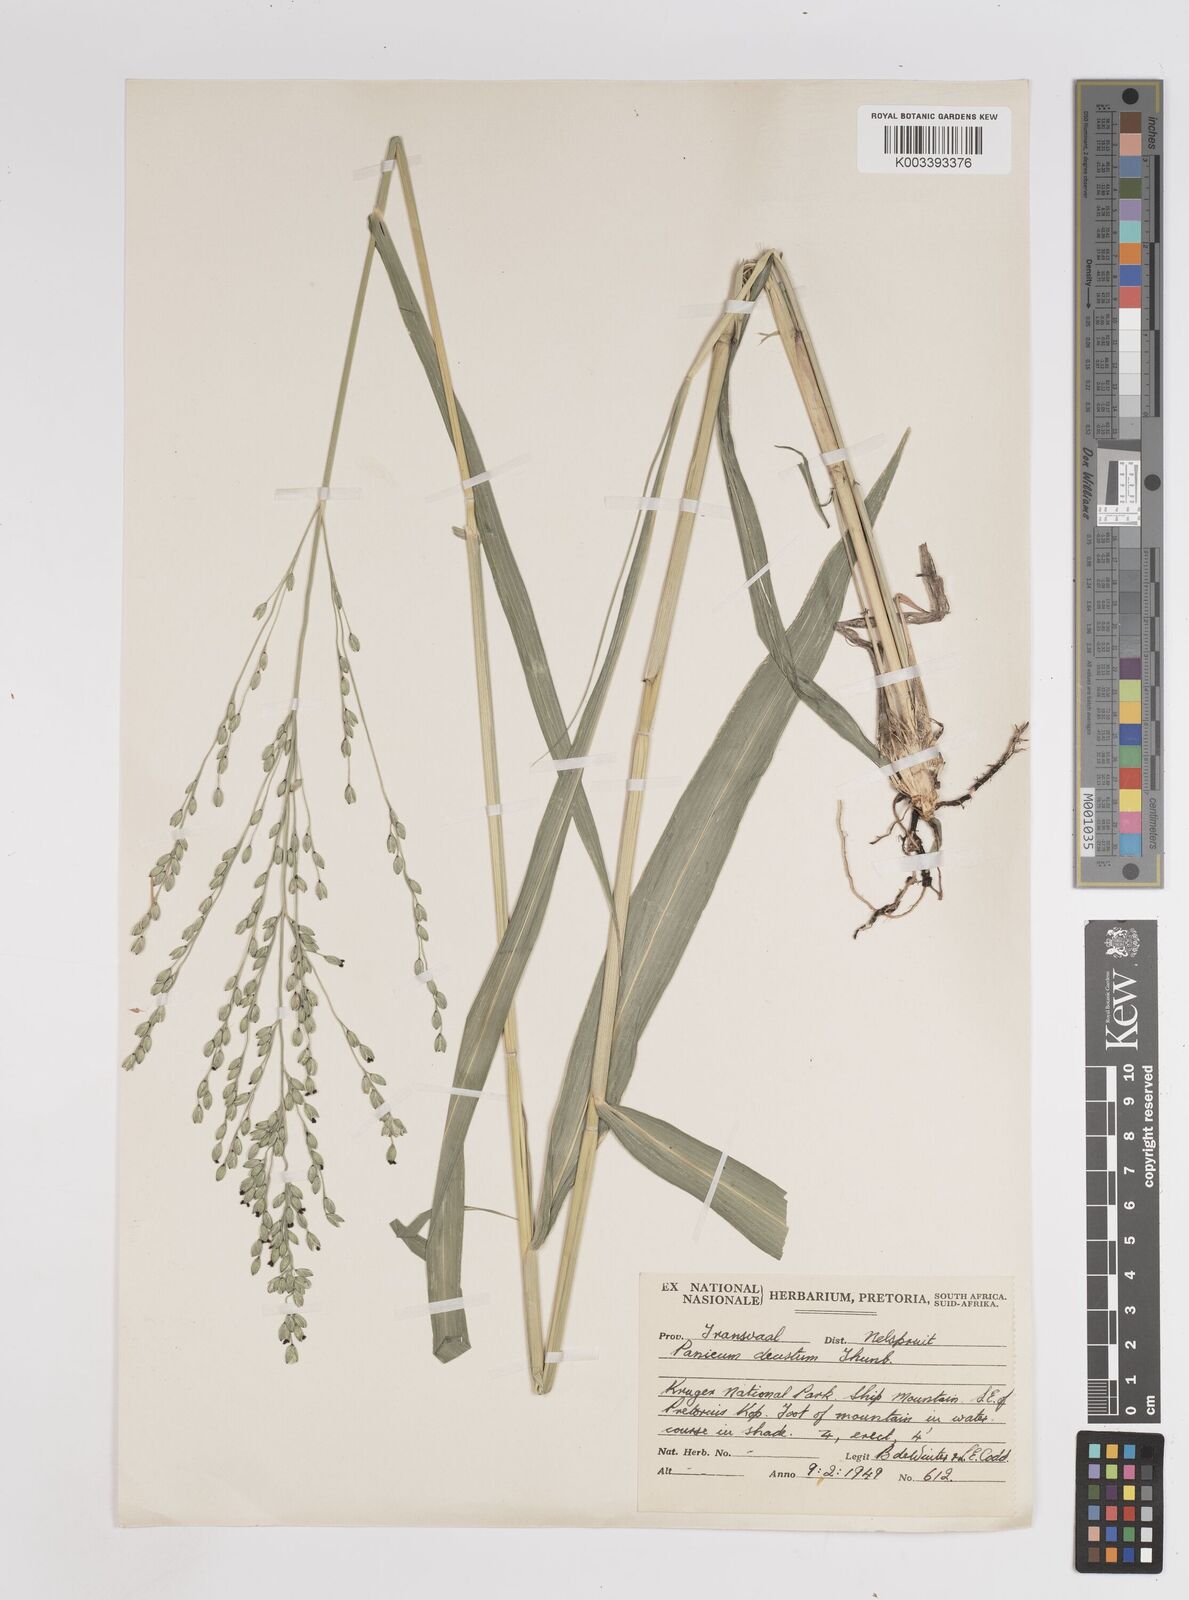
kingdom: Plantae
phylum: Tracheophyta
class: Liliopsida
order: Poales
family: Poaceae
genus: Panicum
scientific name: Panicum deustum
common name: Reed panicum
